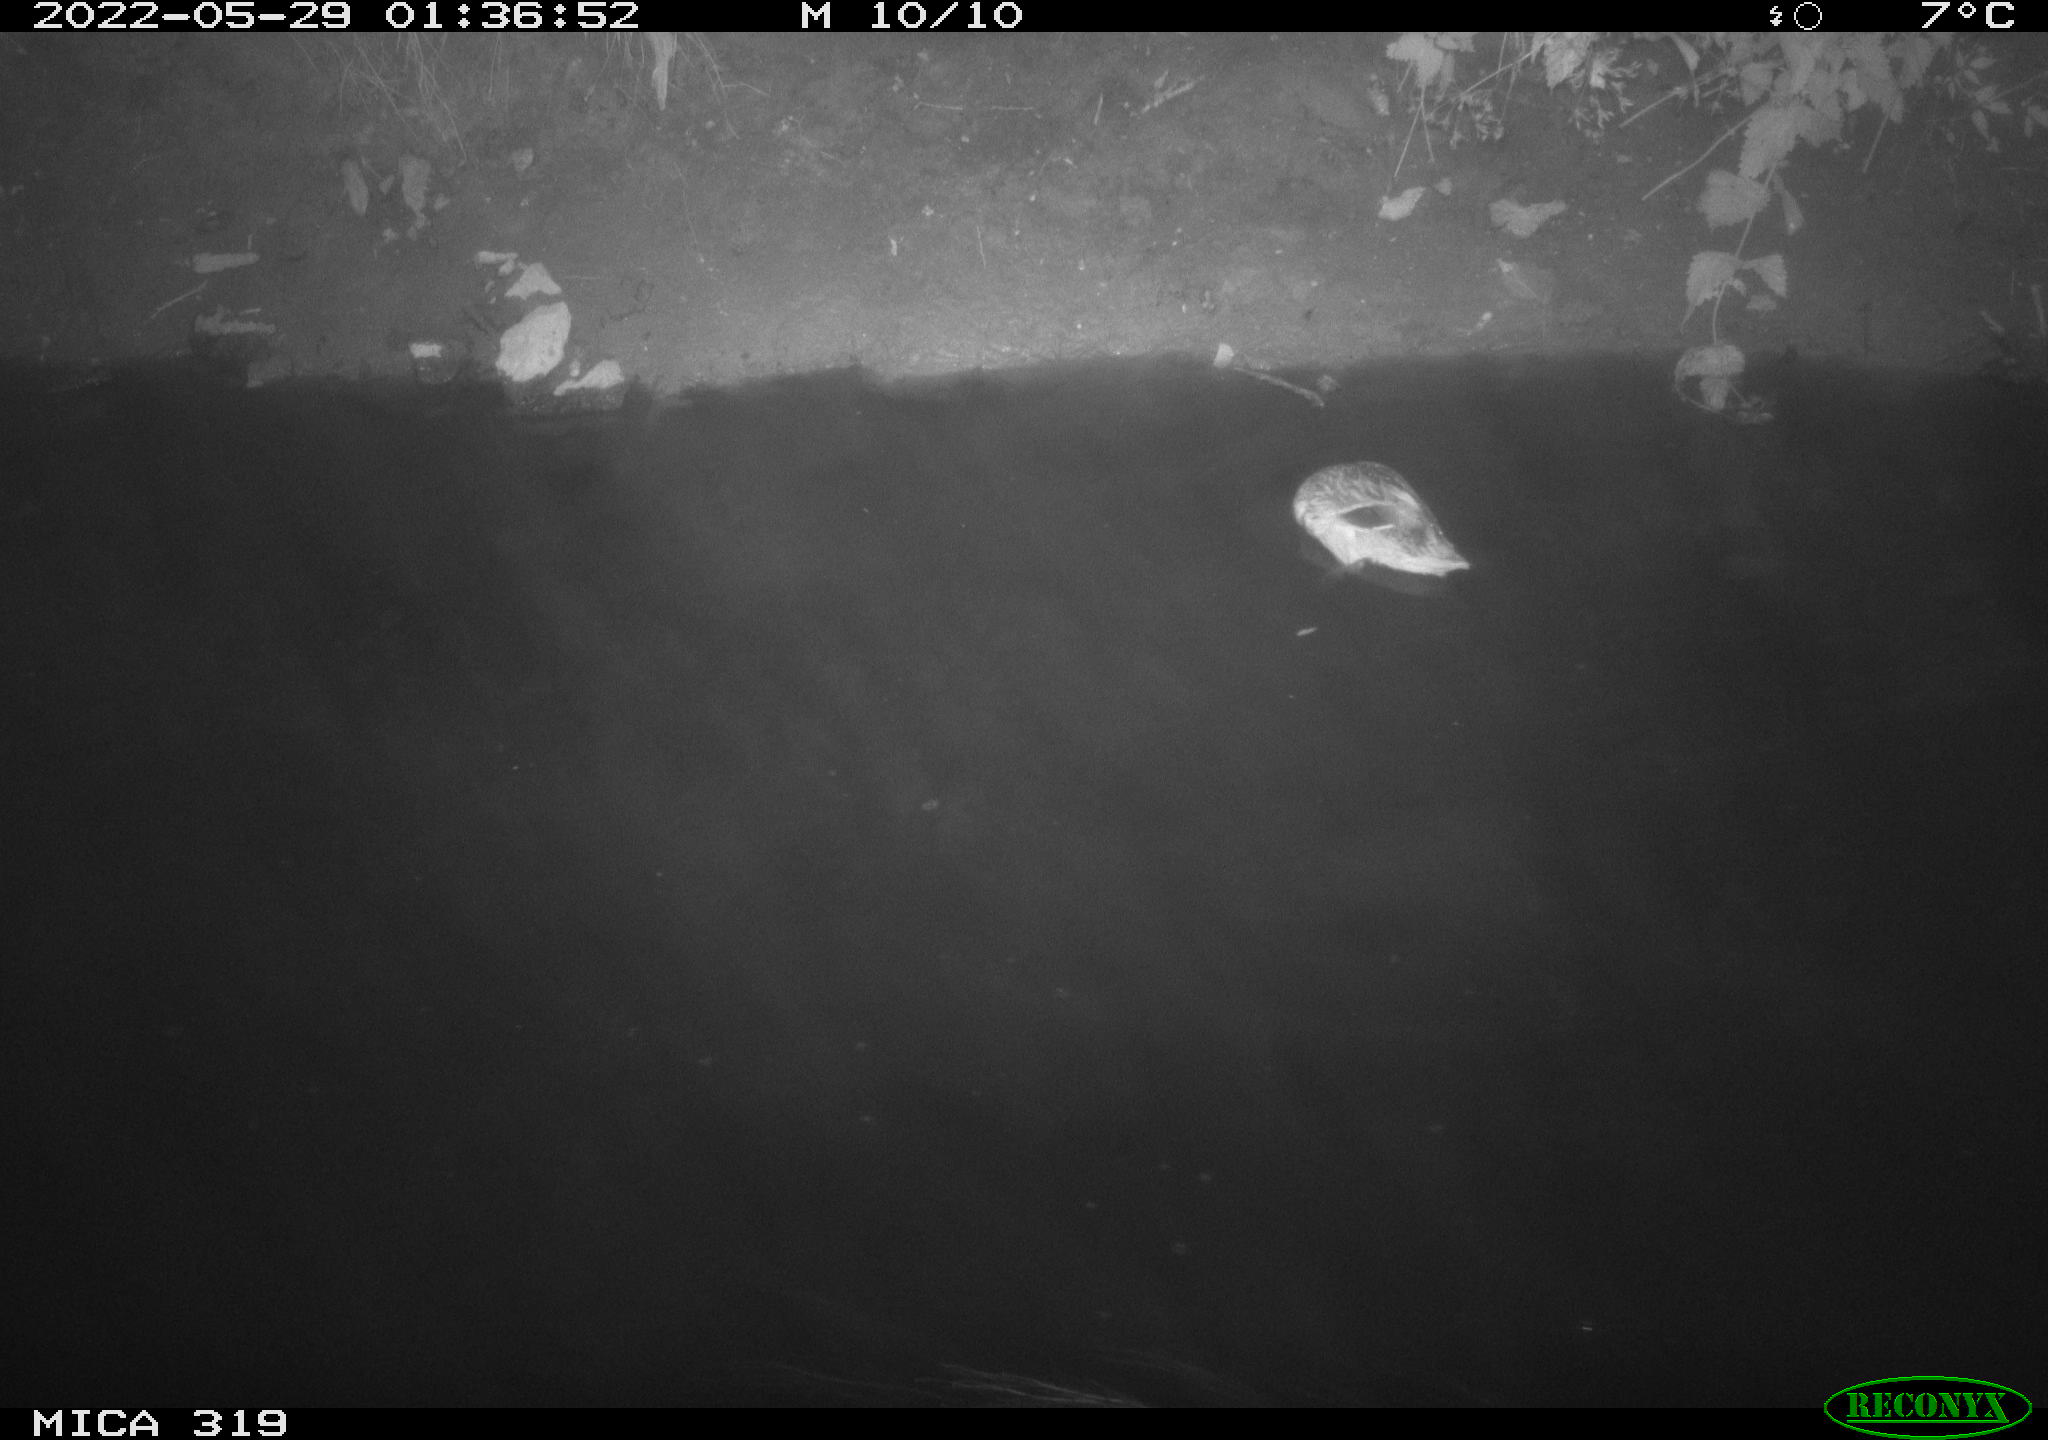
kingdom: Animalia
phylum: Chordata
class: Aves
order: Anseriformes
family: Anatidae
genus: Anas
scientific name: Anas
